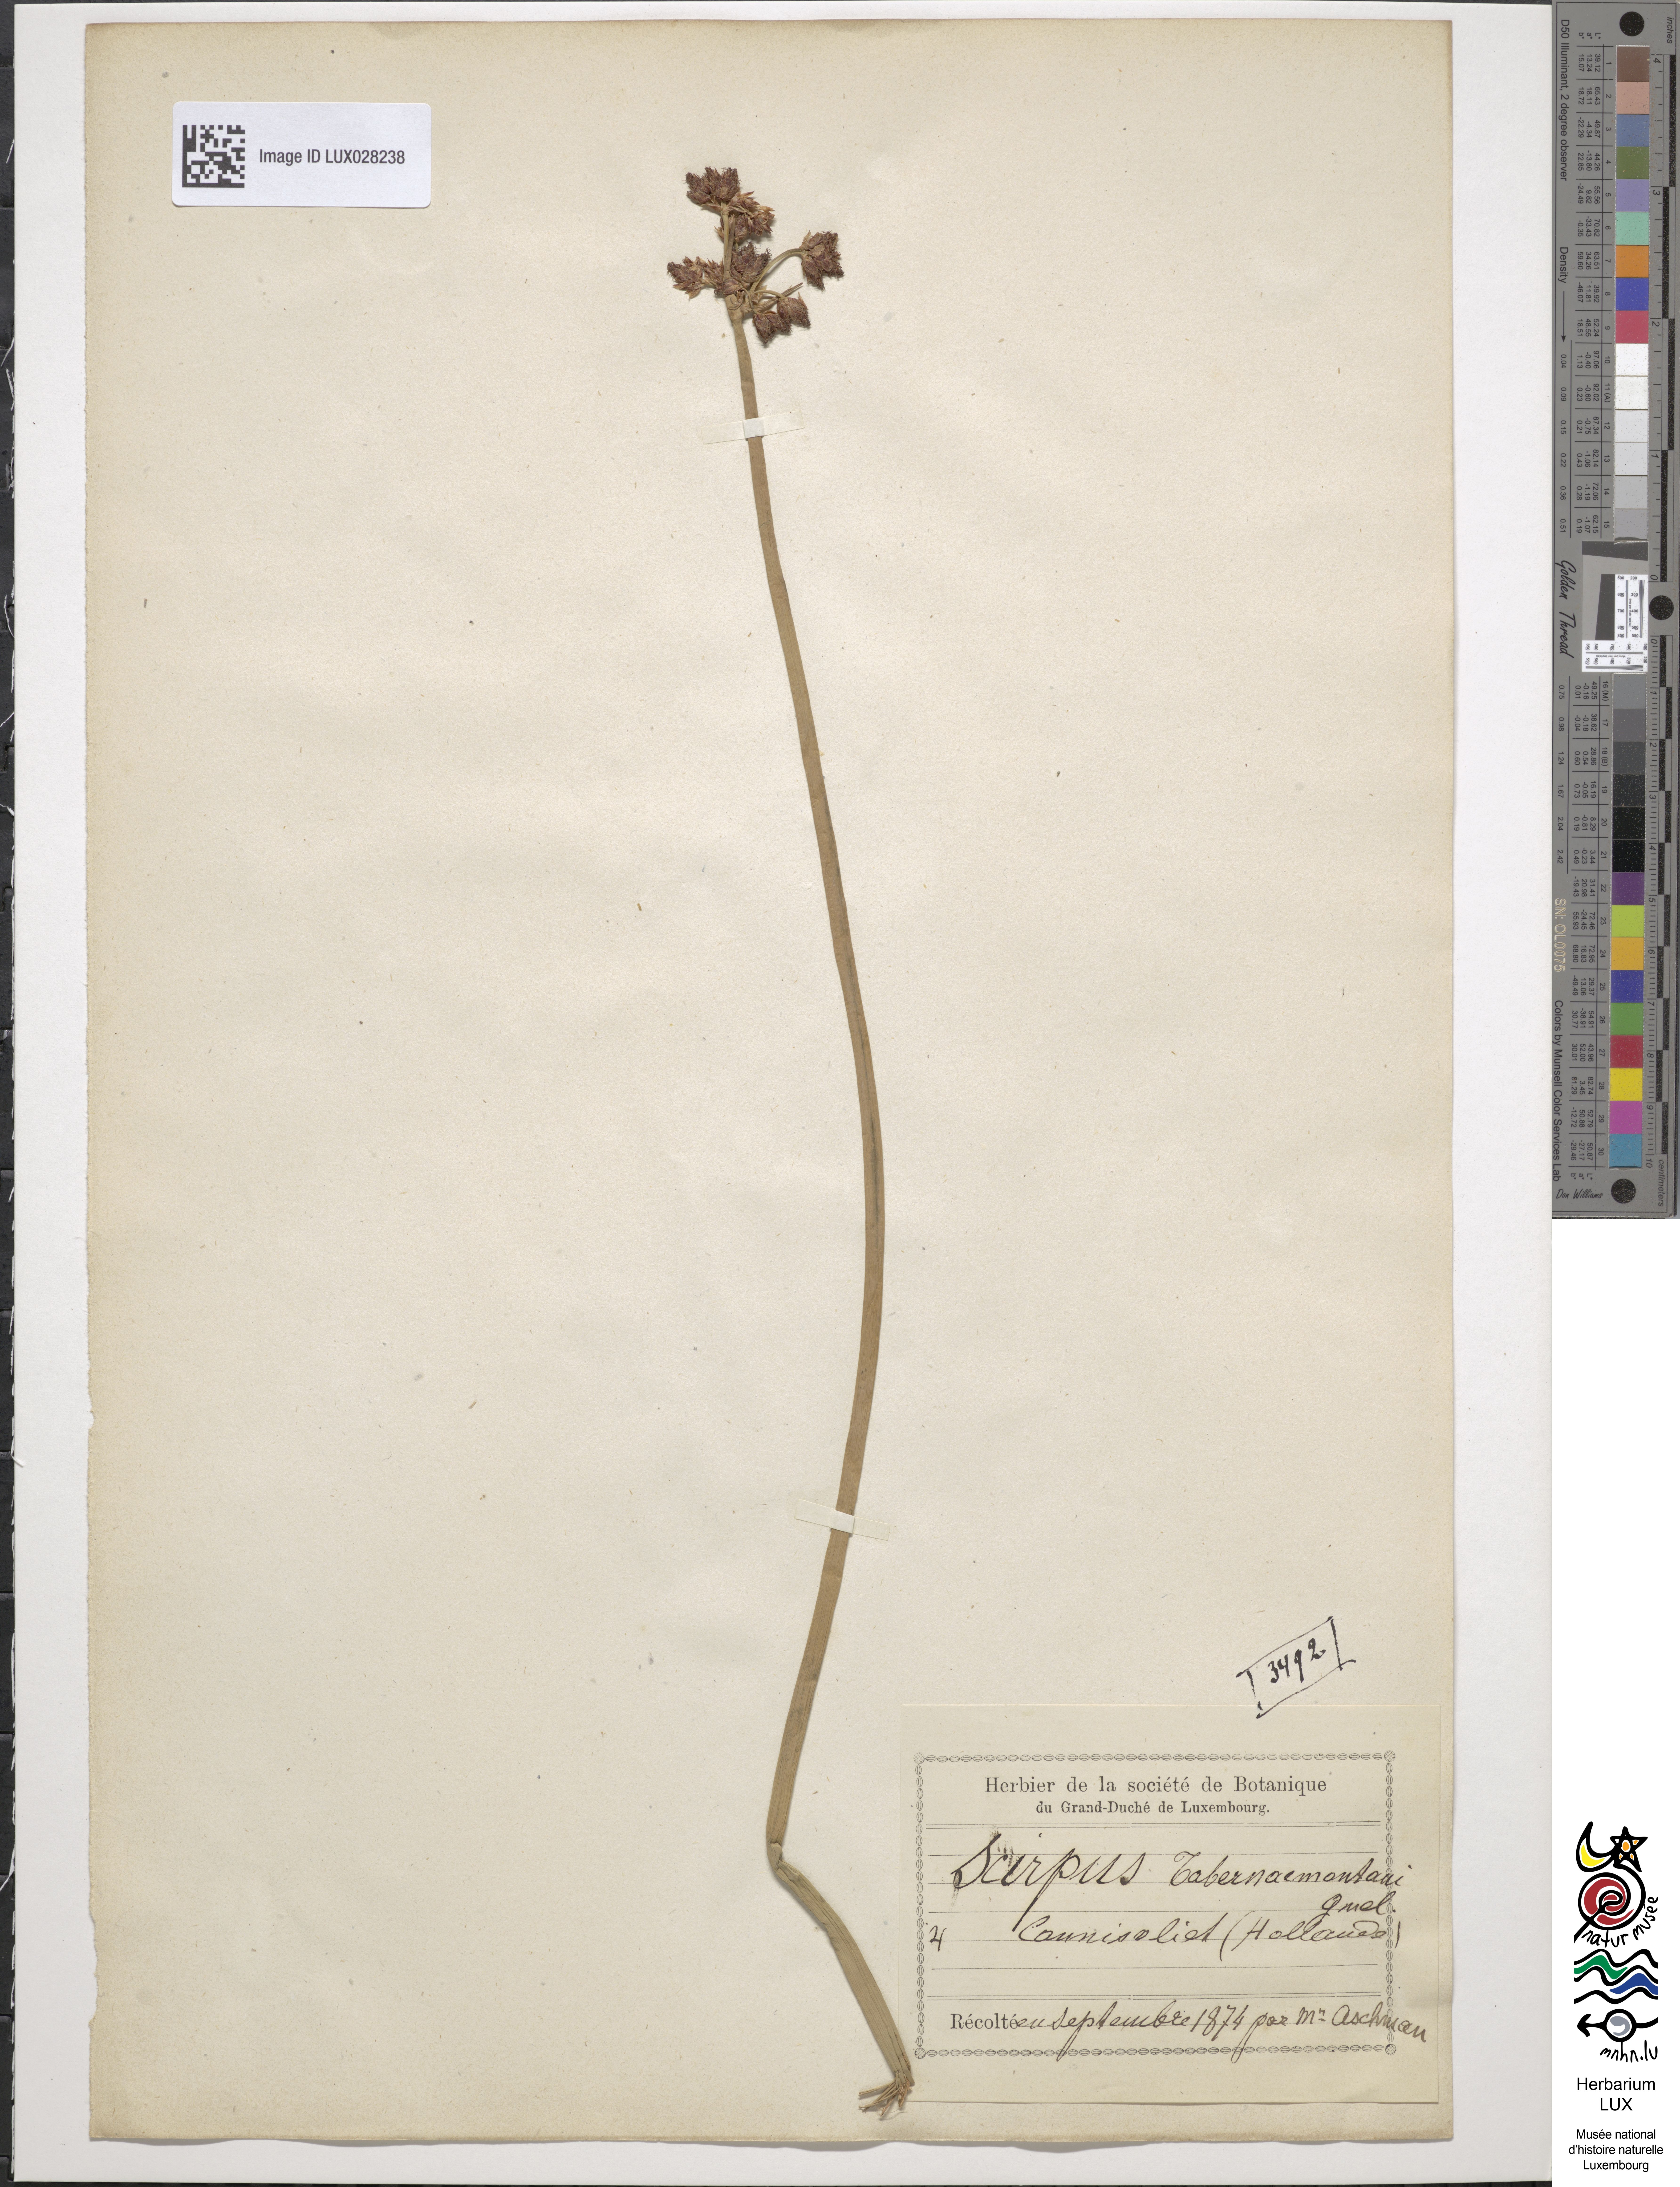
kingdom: Plantae
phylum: Tracheophyta
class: Liliopsida
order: Poales
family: Cyperaceae
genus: Schoenoplectus
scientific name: Schoenoplectus tabernaemontani
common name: Grey club-rush
